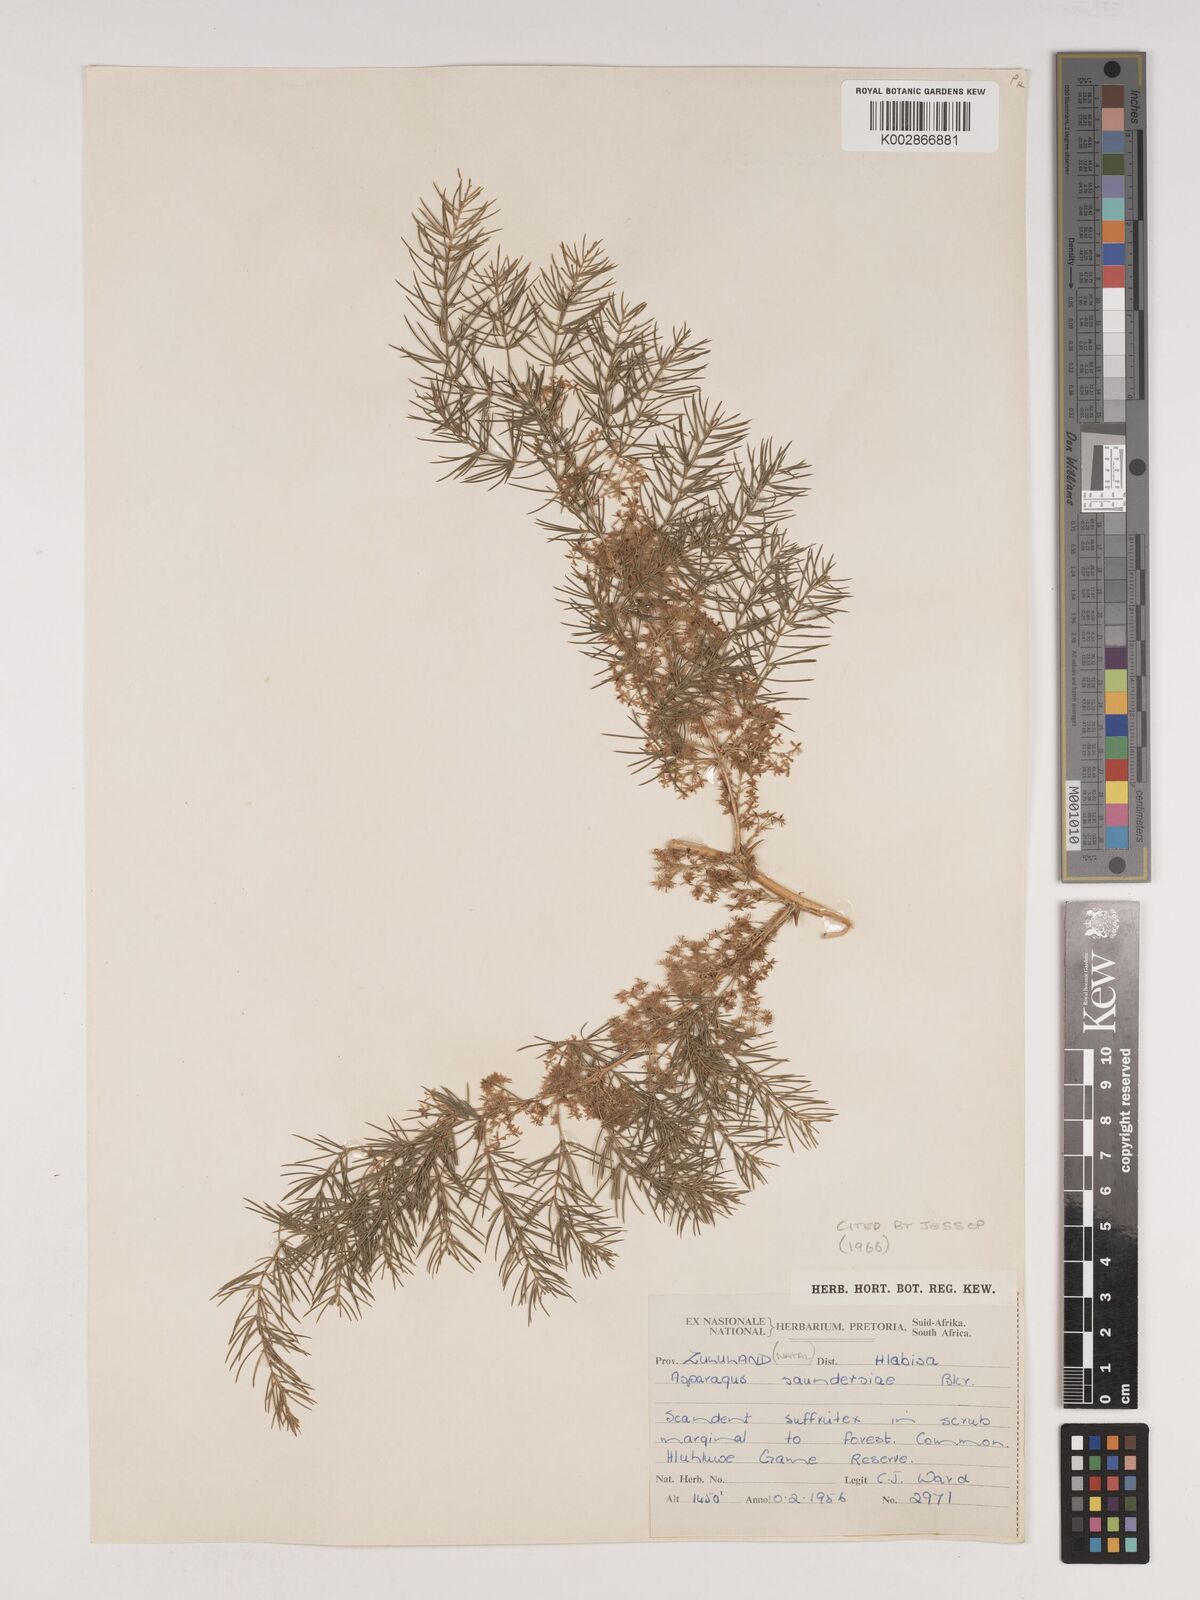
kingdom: Plantae
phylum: Tracheophyta
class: Liliopsida
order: Asparagales
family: Asparagaceae
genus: Asparagus
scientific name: Asparagus buchananii
